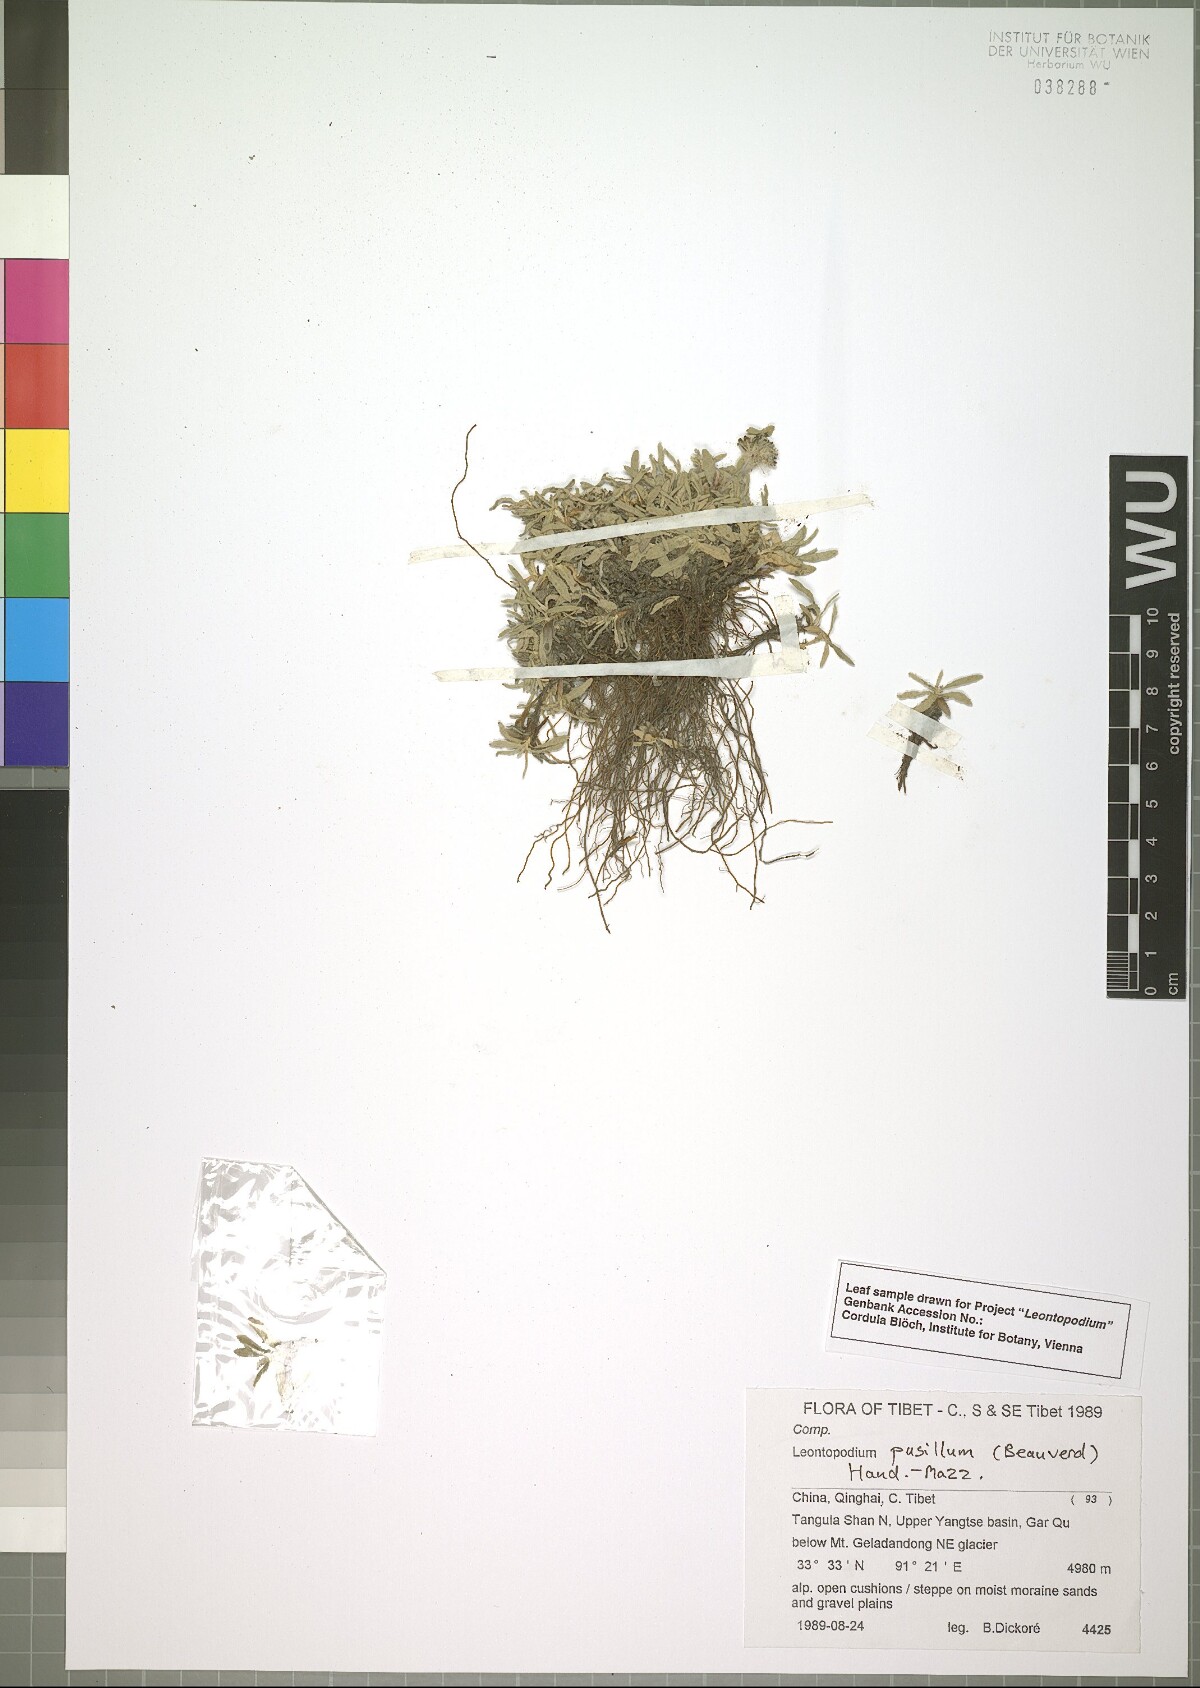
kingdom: Plantae
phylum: Tracheophyta
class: Magnoliopsida
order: Asterales
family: Asteraceae
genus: Leontopodium
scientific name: Leontopodium pusillum
